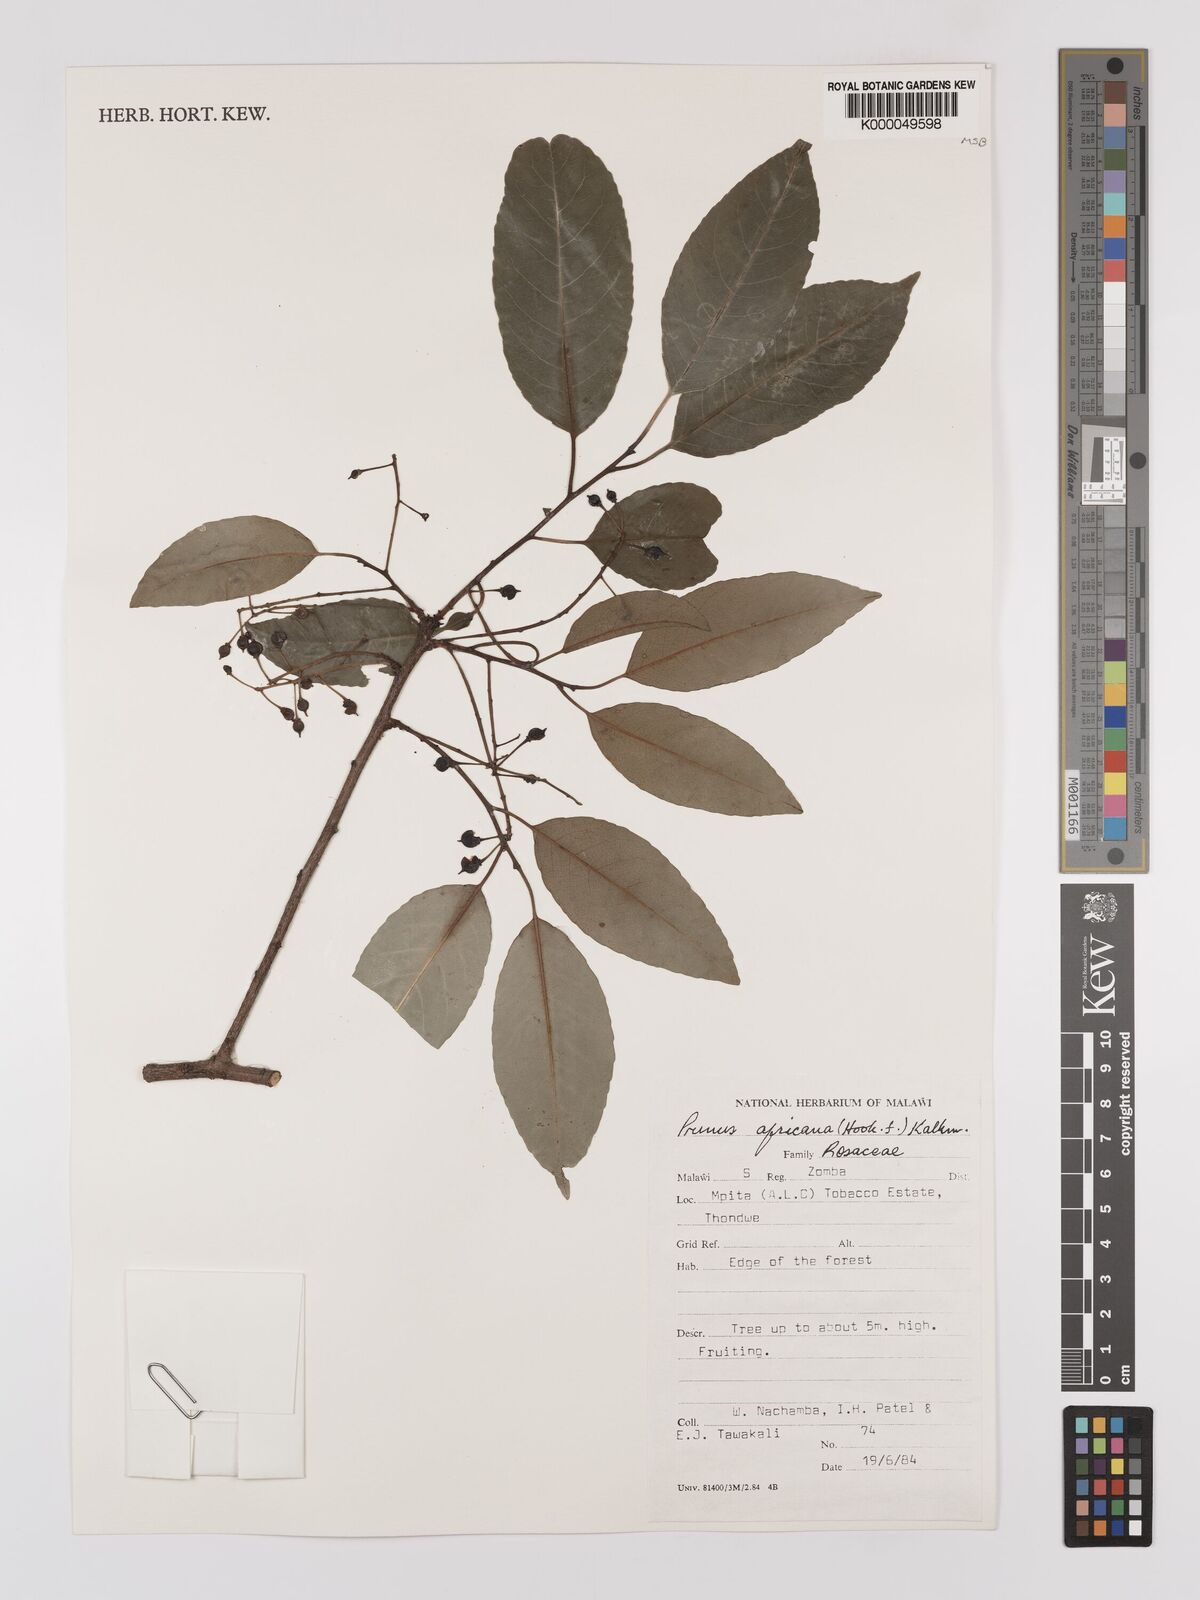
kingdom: Plantae
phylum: Tracheophyta
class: Magnoliopsida
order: Rosales
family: Rosaceae
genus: Prunus
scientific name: Prunus africana
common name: African cherry
